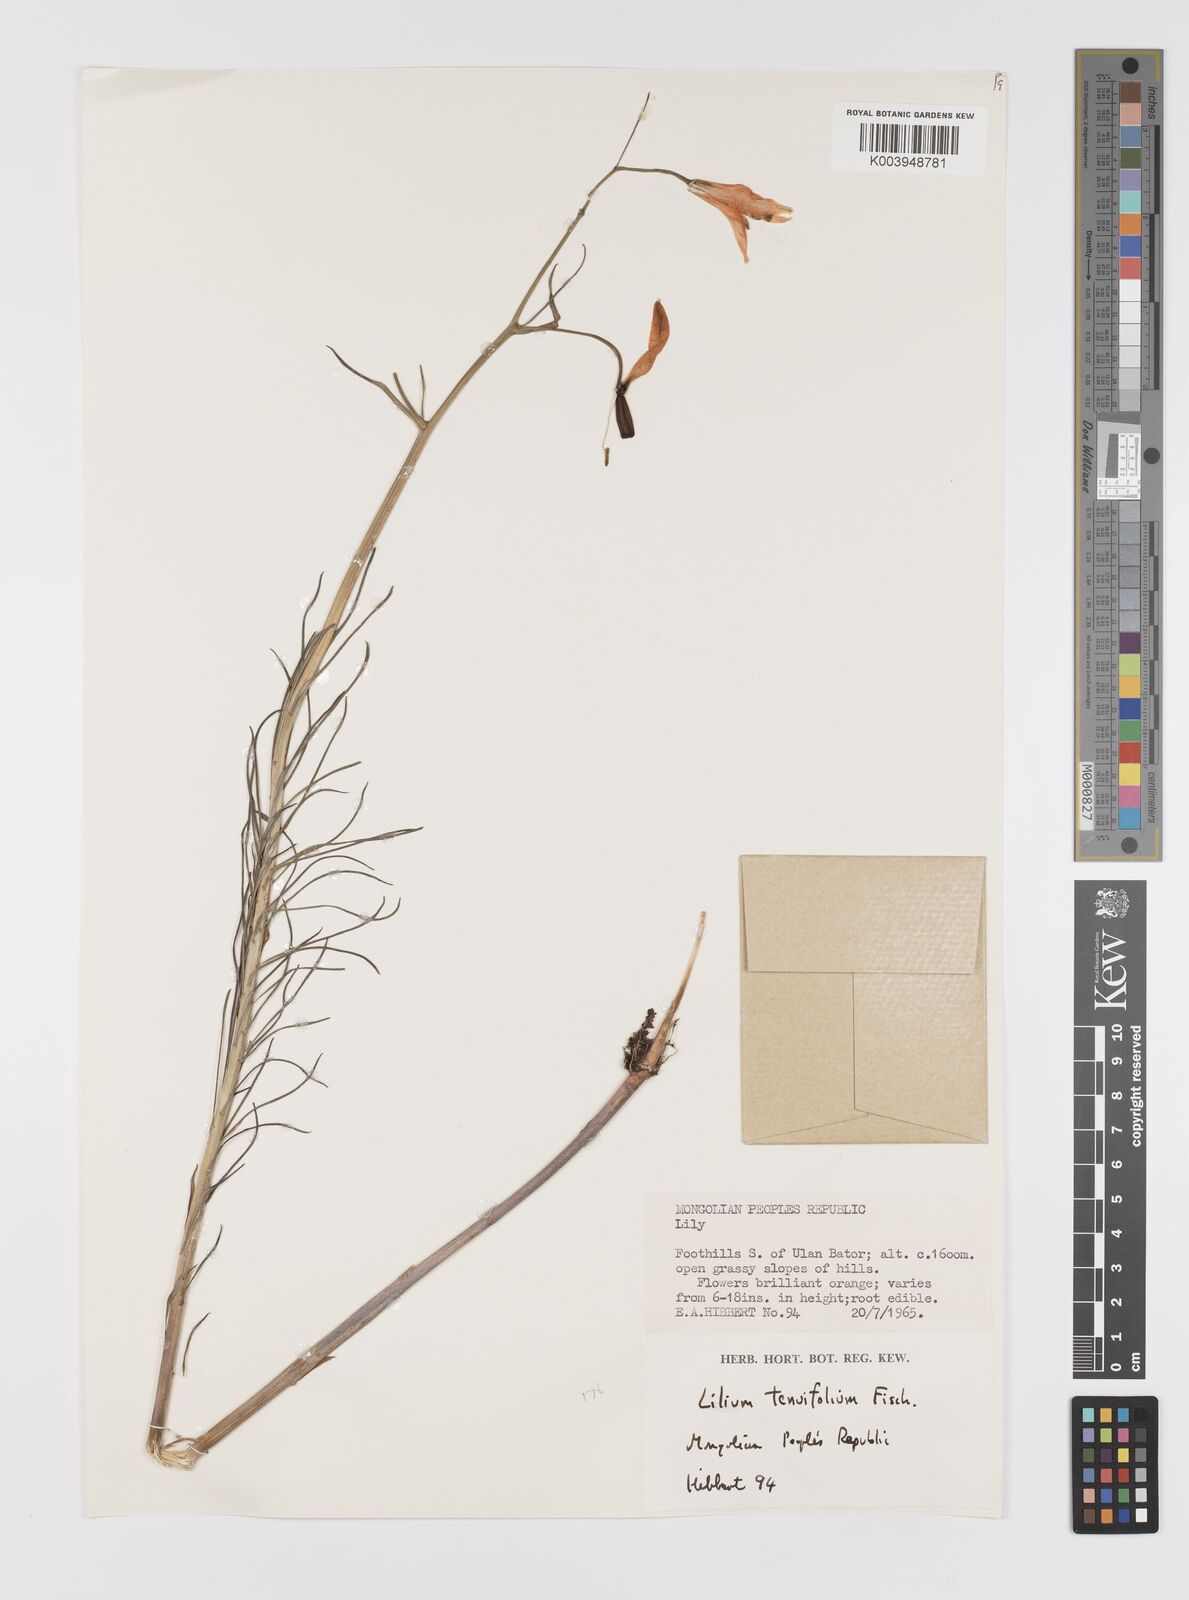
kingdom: Plantae
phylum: Tracheophyta
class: Liliopsida
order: Liliales
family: Liliaceae
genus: Lilium
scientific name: Lilium pumilum
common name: Coral lily
